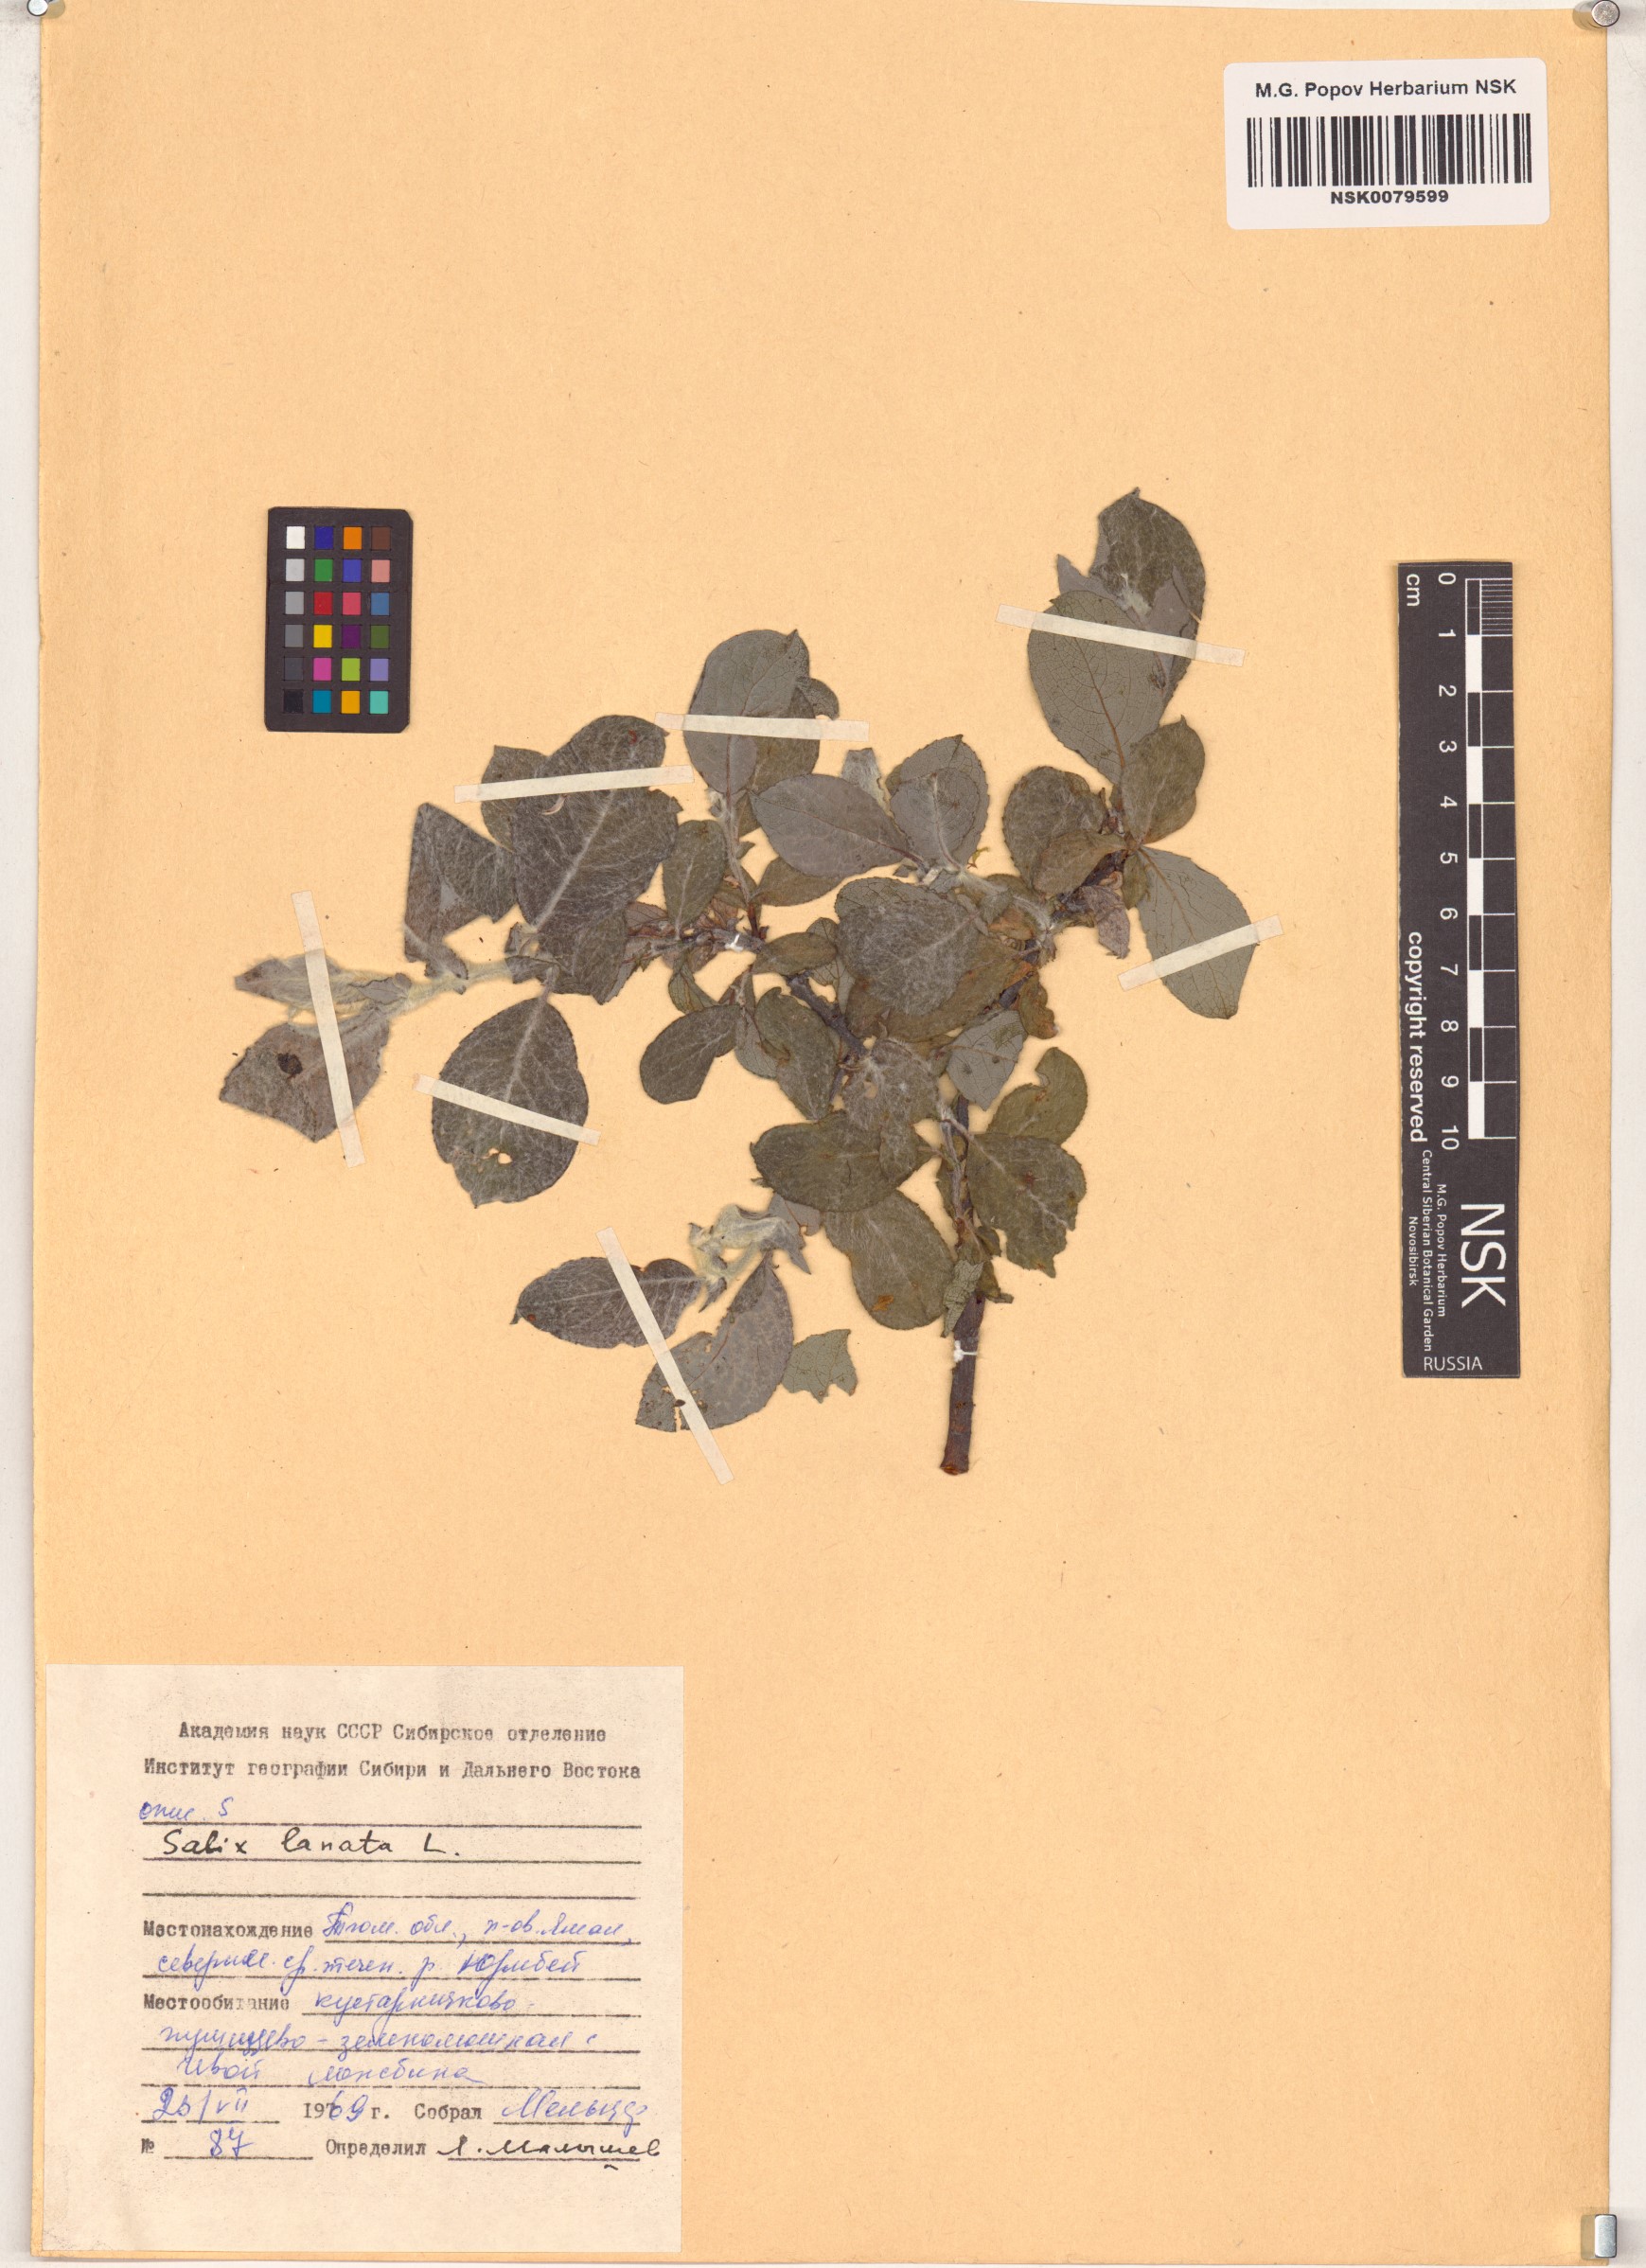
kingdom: Plantae
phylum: Tracheophyta
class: Magnoliopsida
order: Malpighiales
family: Salicaceae
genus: Salix
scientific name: Salix lanata
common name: Woolly willow
